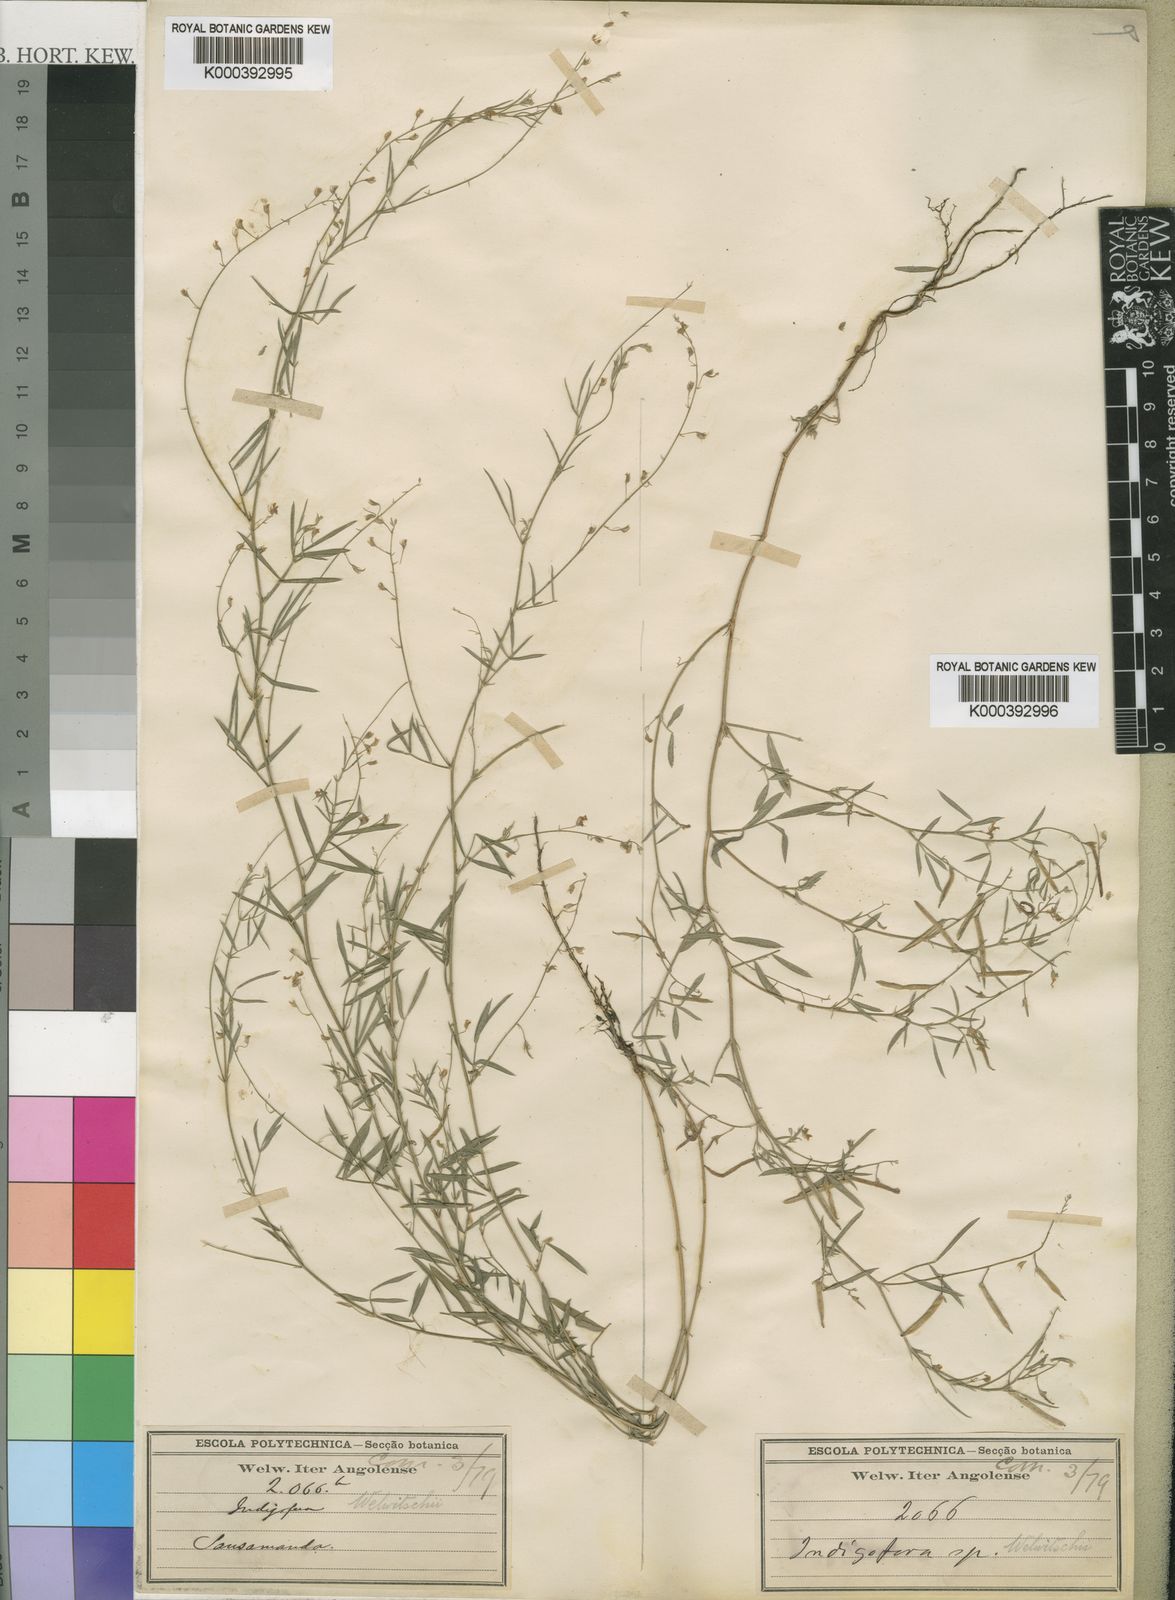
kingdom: Plantae
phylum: Tracheophyta
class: Magnoliopsida
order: Fabales
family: Fabaceae
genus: Microcharis
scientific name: Microcharis welwitschii
